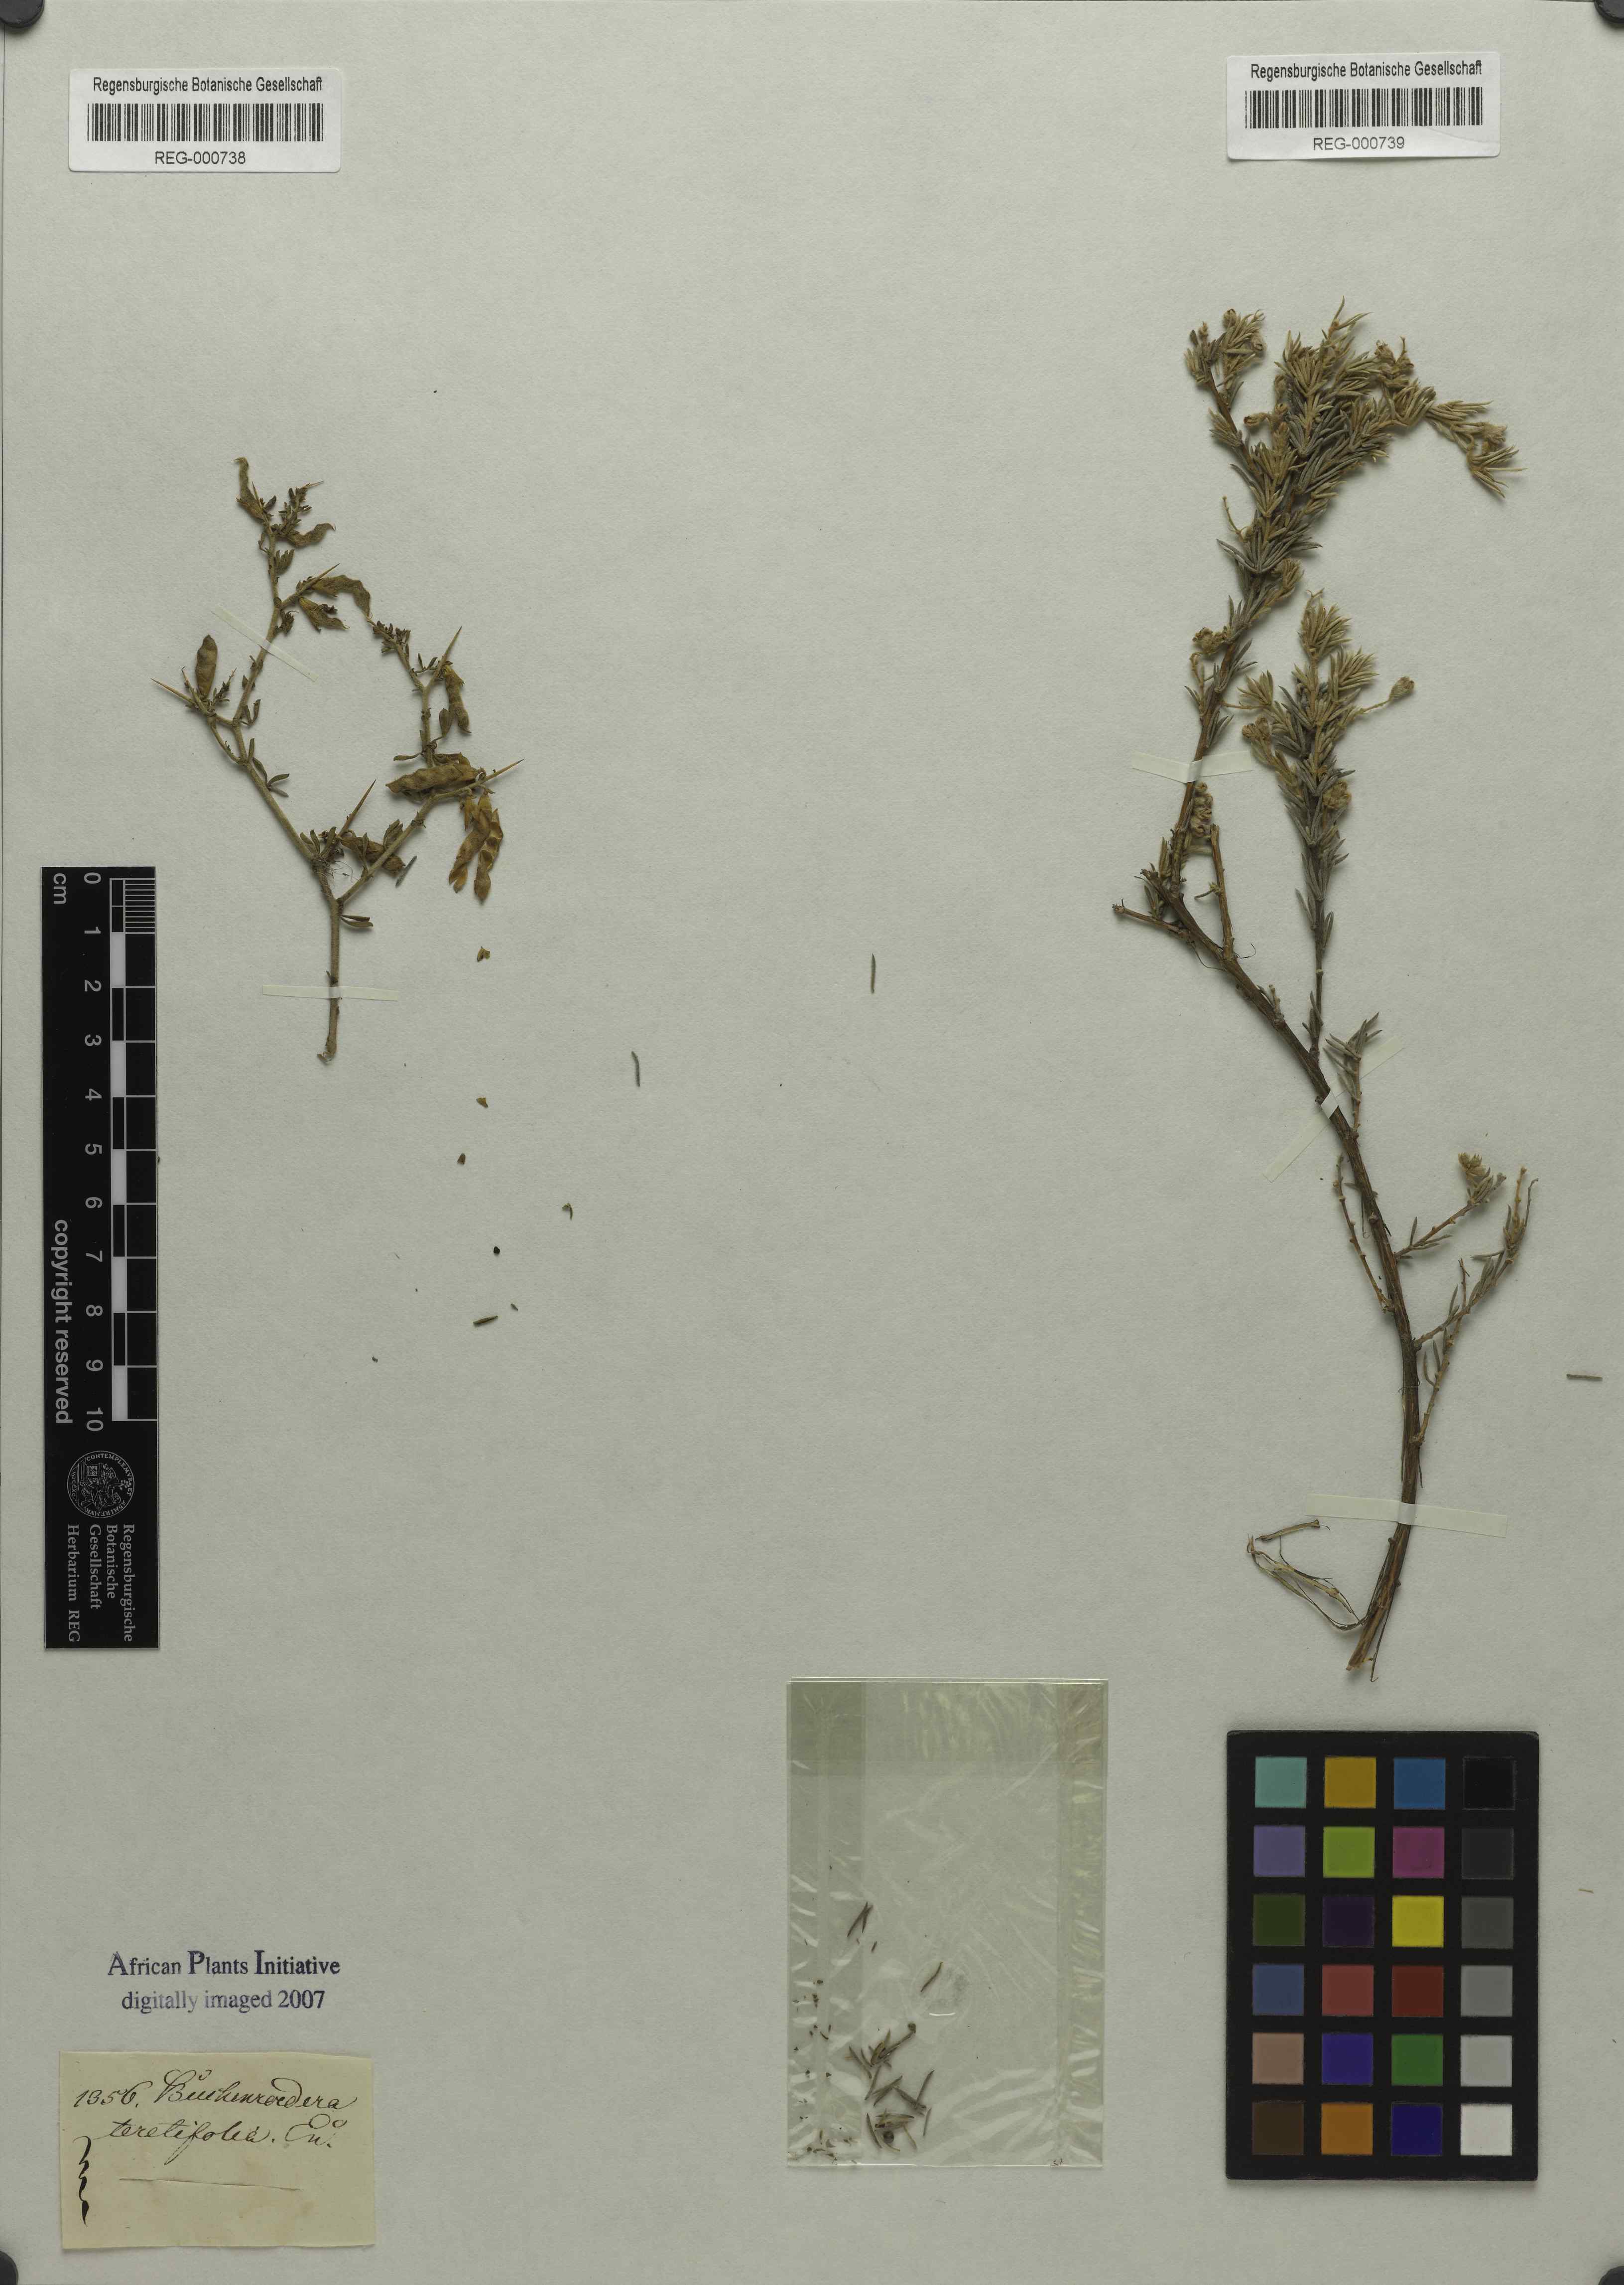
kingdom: Plantae
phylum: Tracheophyta
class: Magnoliopsida
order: Fabales
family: Fabaceae
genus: Aspalathus
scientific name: Aspalathus albens
